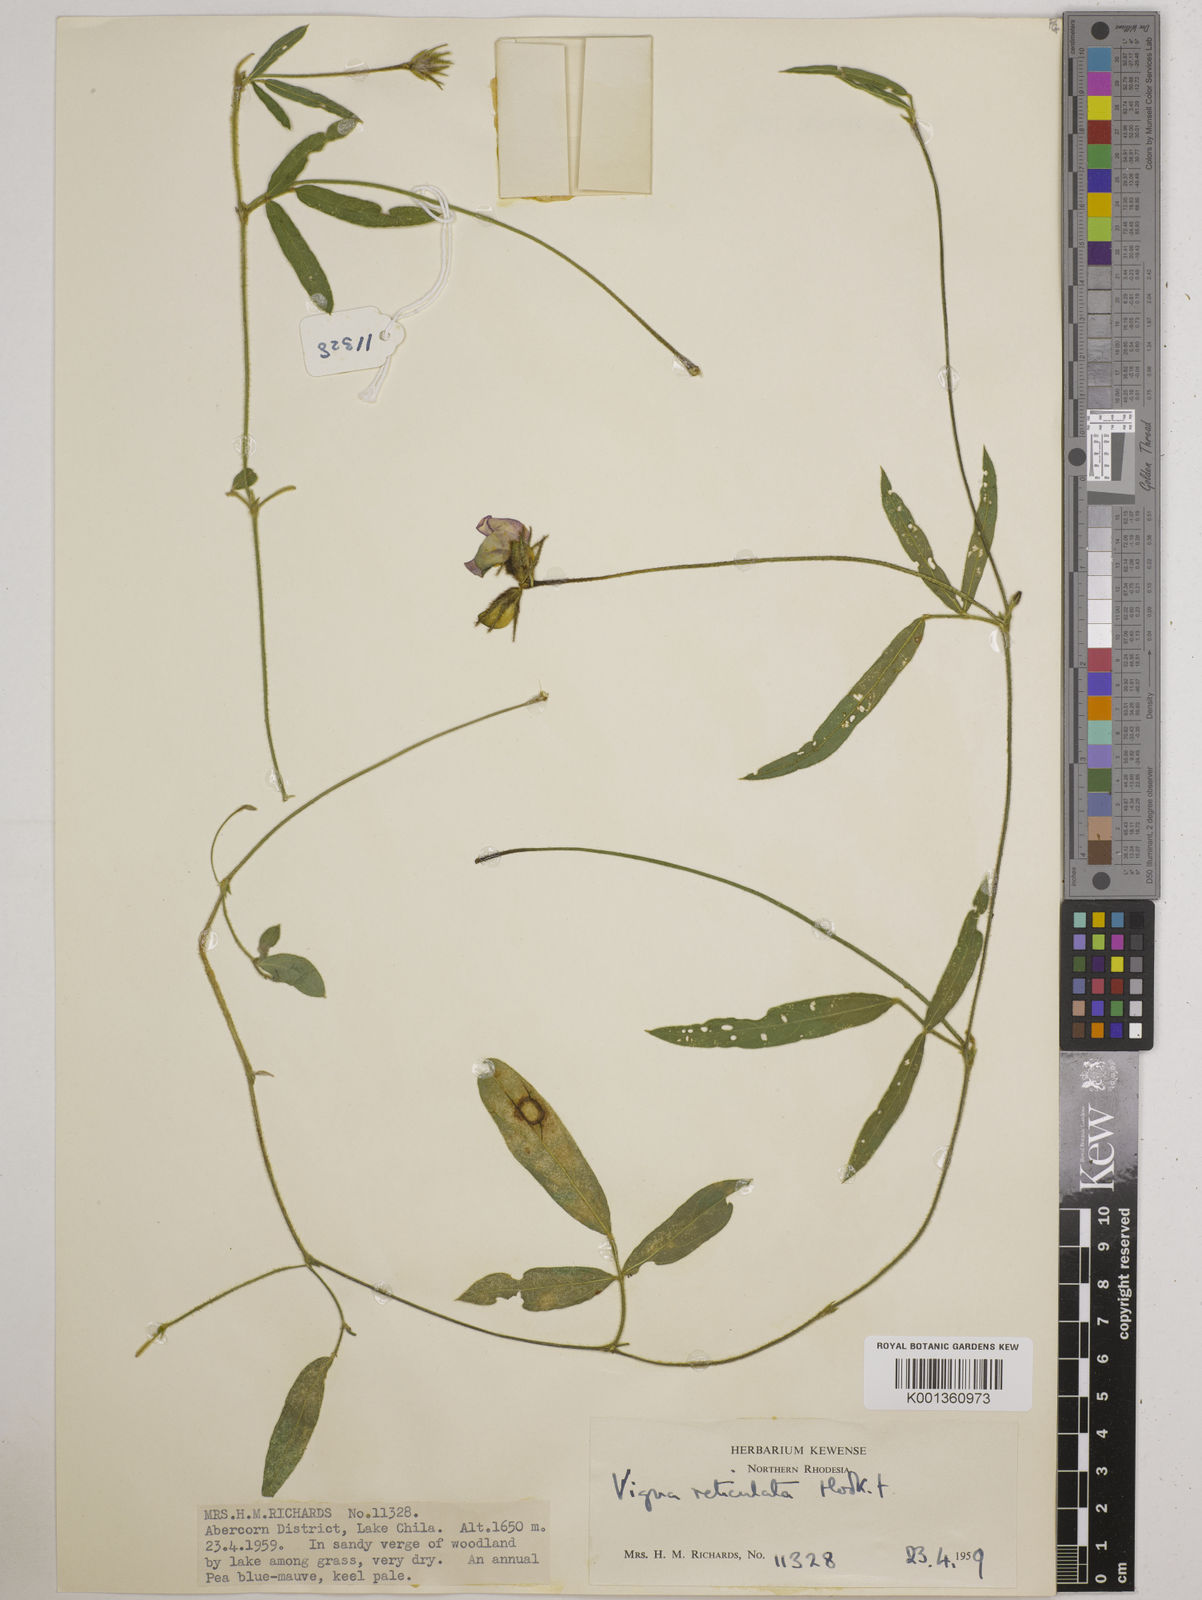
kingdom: Plantae
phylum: Tracheophyta
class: Magnoliopsida
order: Fabales
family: Fabaceae
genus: Vigna
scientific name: Vigna reticulata
